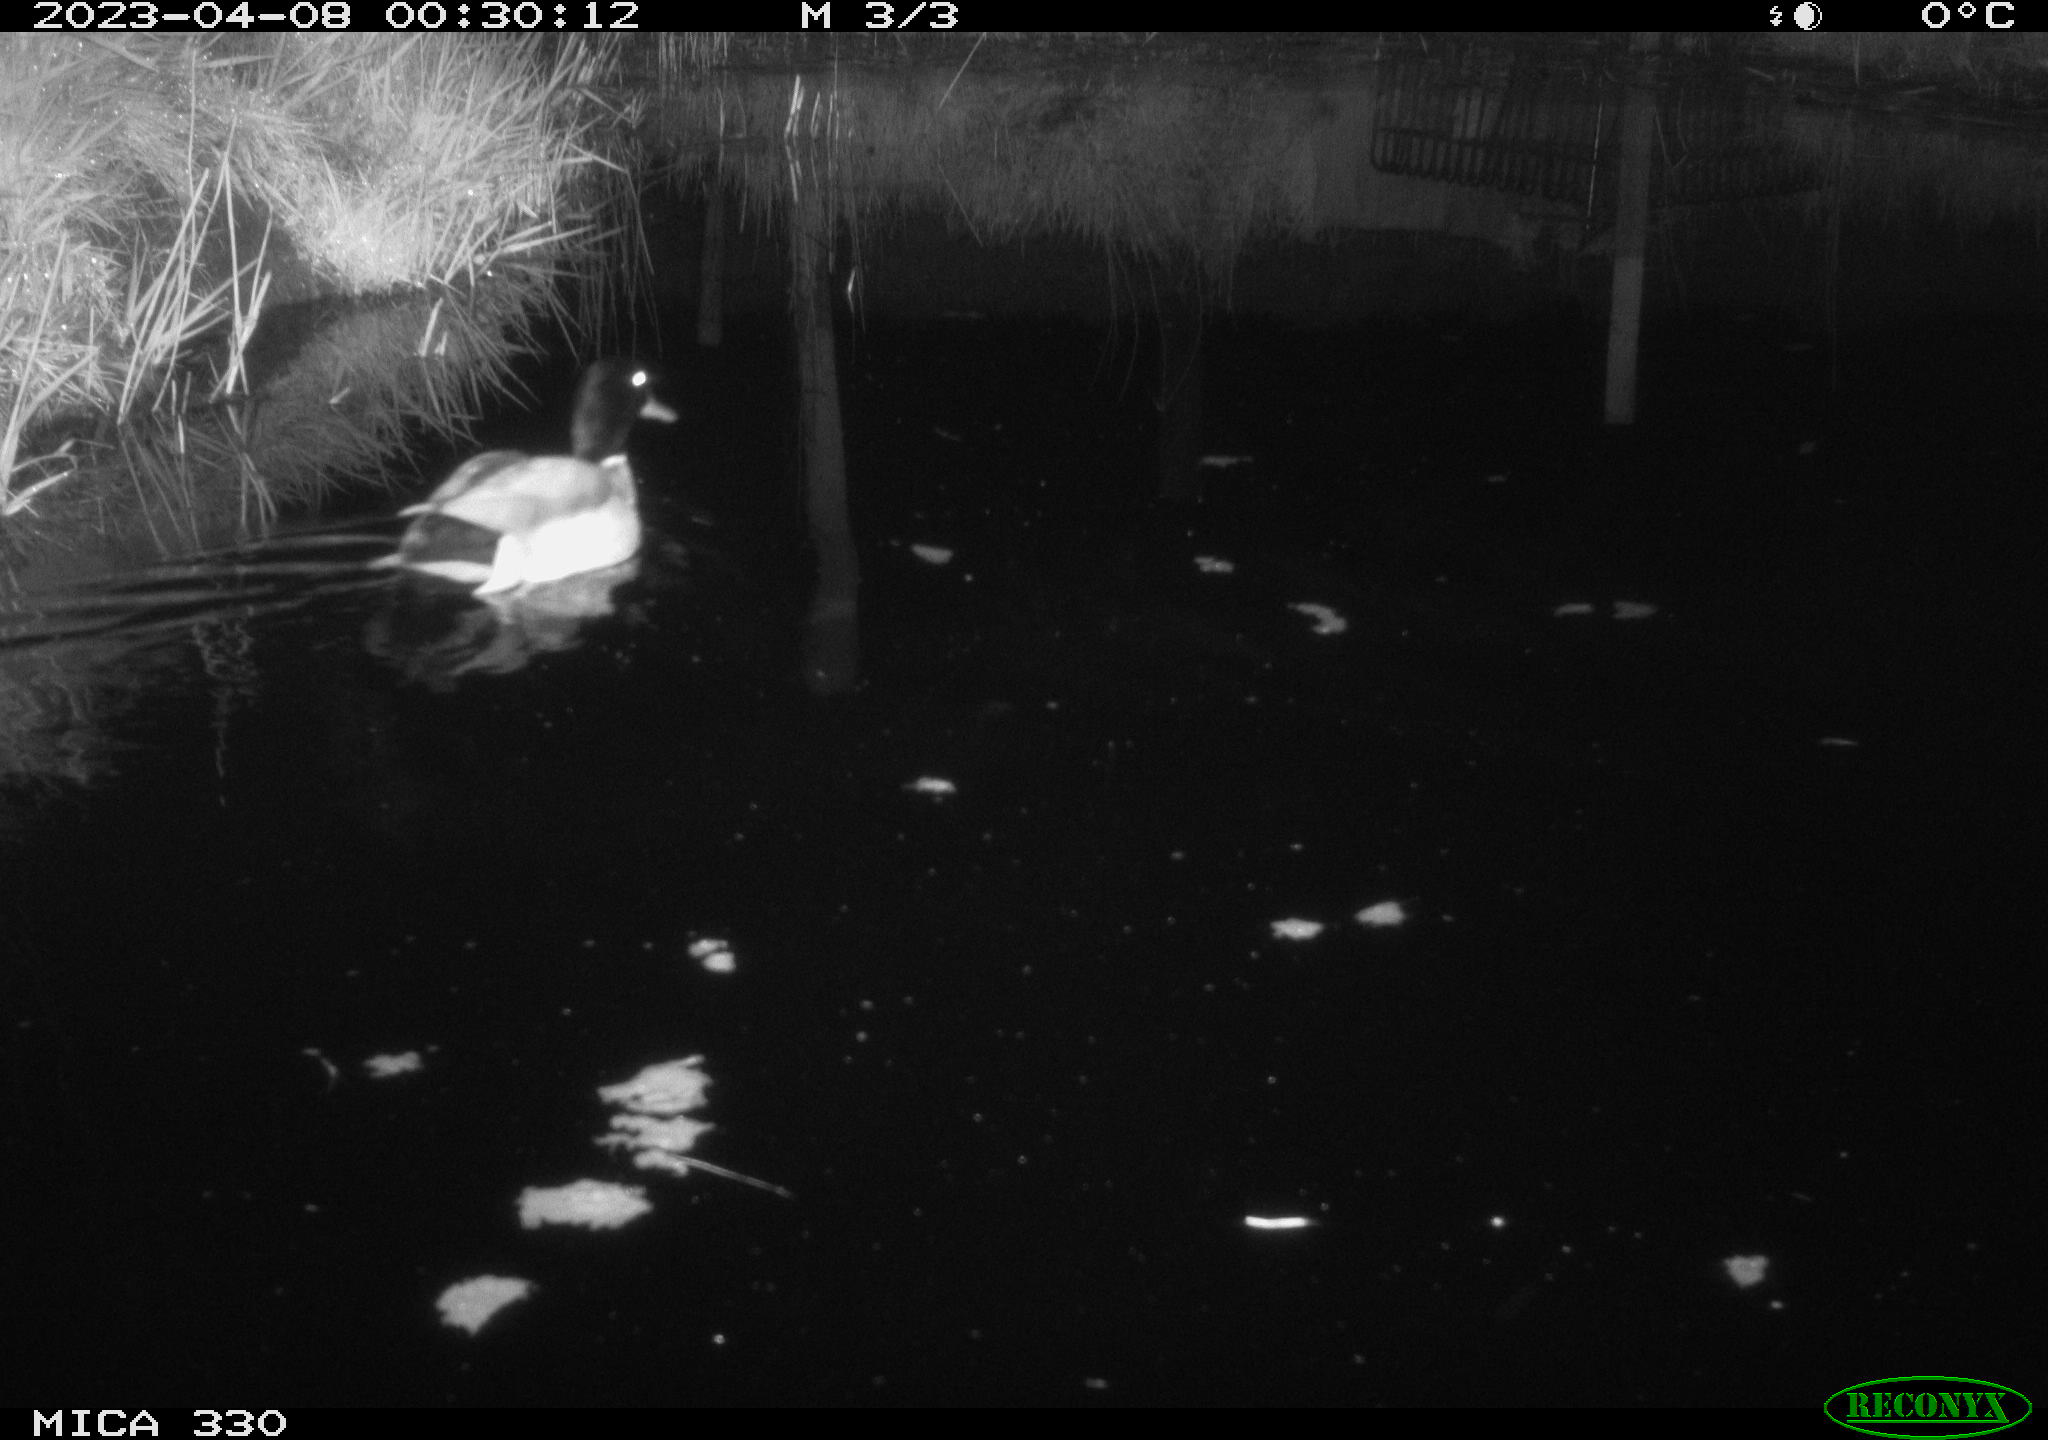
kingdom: Animalia
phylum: Chordata
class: Aves
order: Anseriformes
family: Anatidae
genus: Anas
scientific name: Anas
